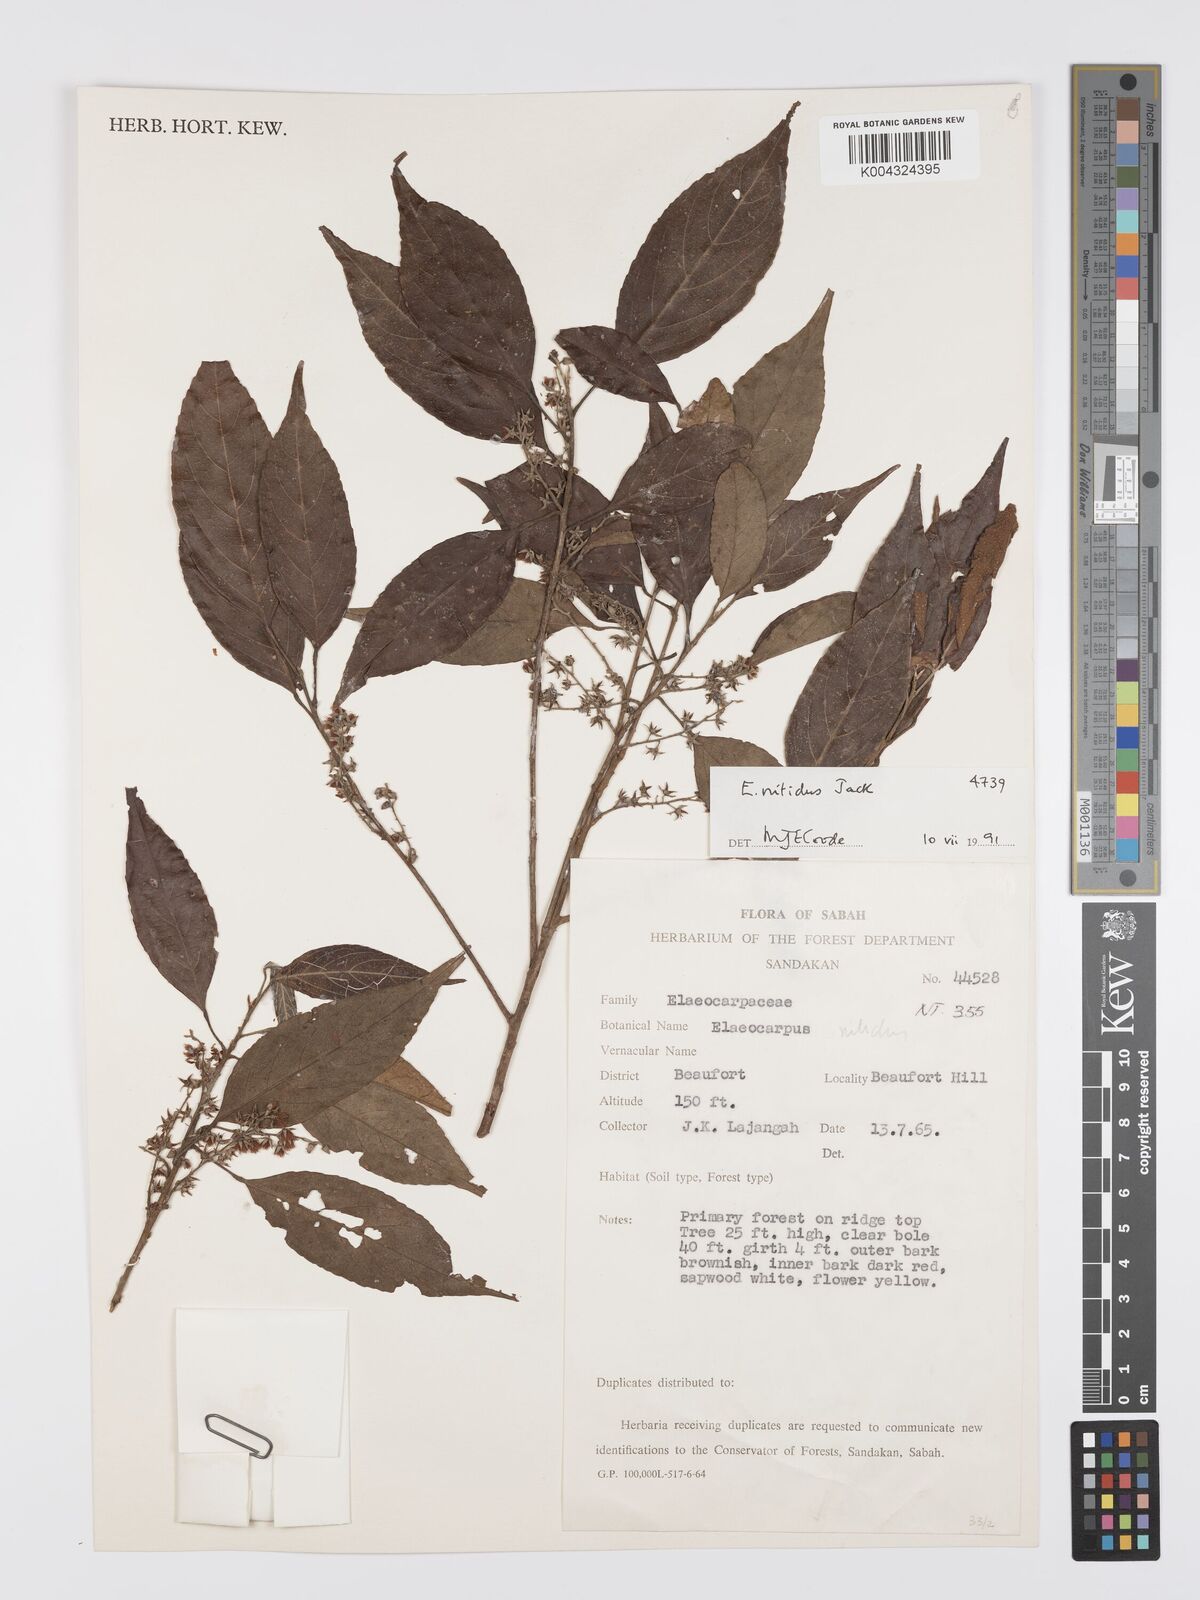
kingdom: Plantae
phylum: Tracheophyta
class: Magnoliopsida
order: Oxalidales
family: Elaeocarpaceae
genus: Elaeocarpus
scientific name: Elaeocarpus nitidus
